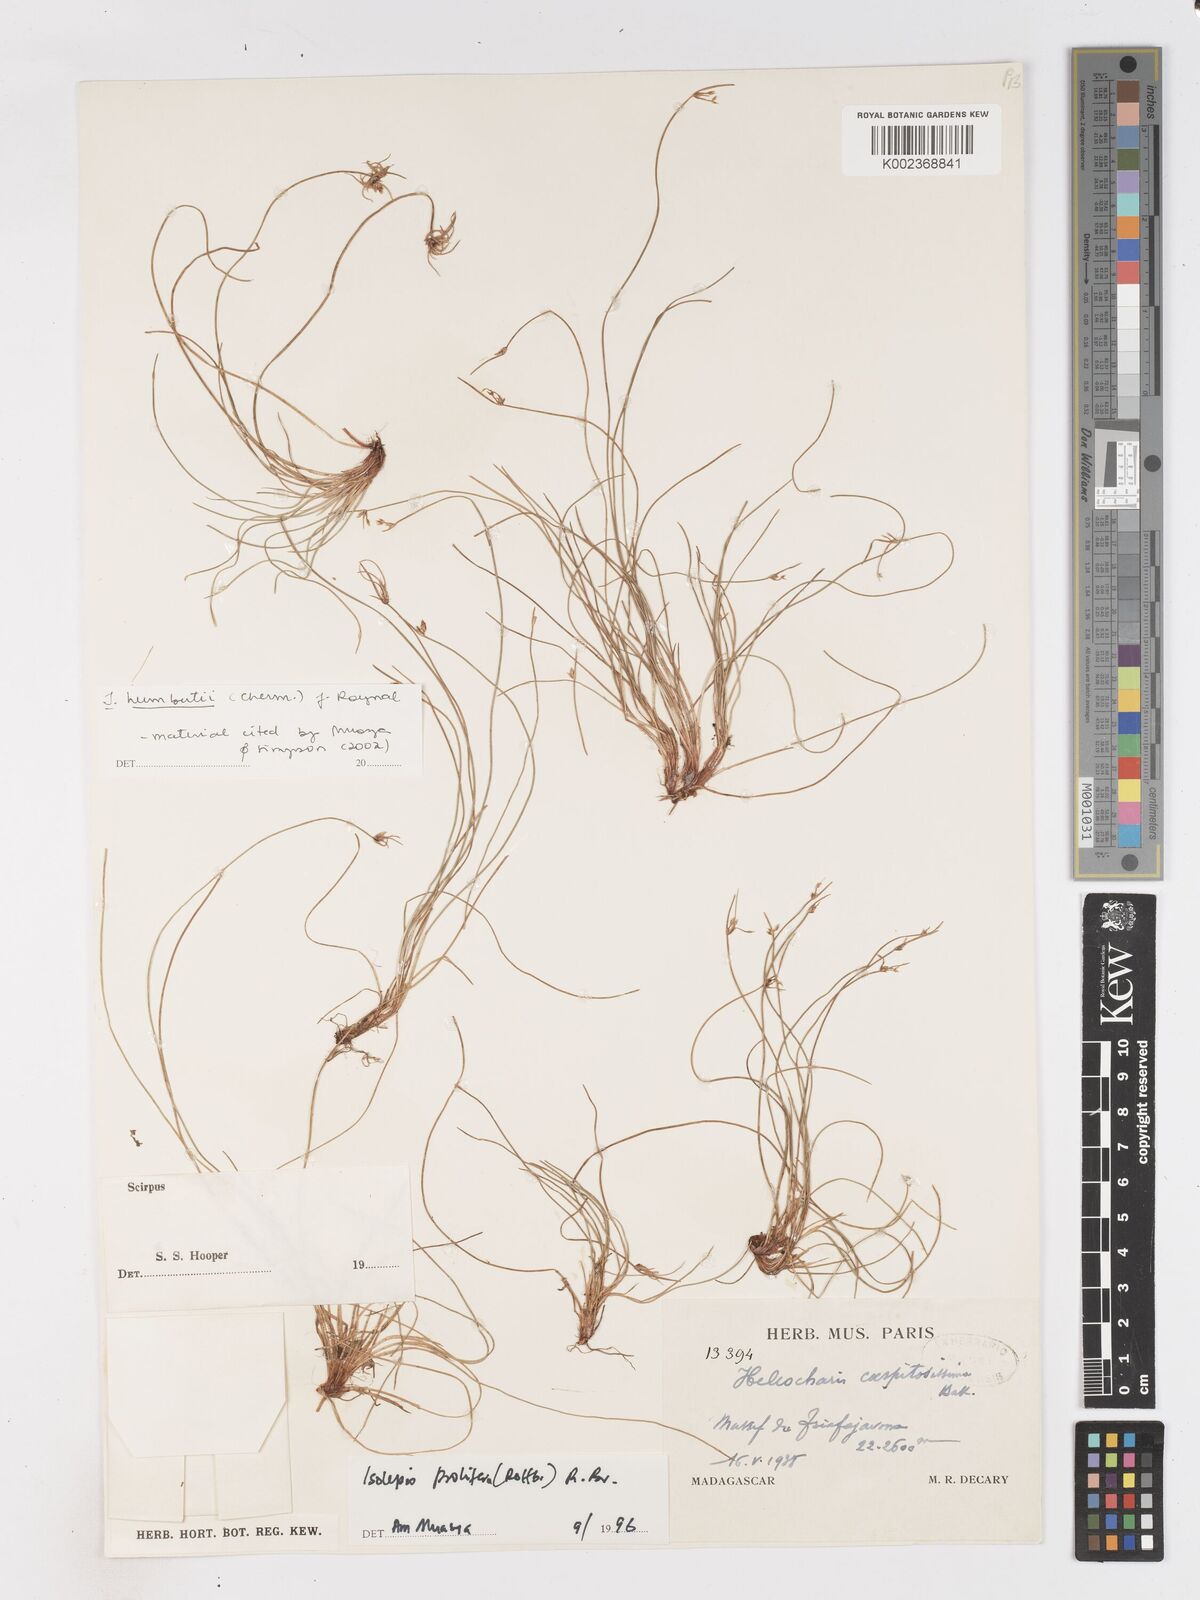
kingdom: Plantae
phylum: Tracheophyta
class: Liliopsida
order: Poales
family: Cyperaceae
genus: Isolepis
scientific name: Isolepis humbertii
